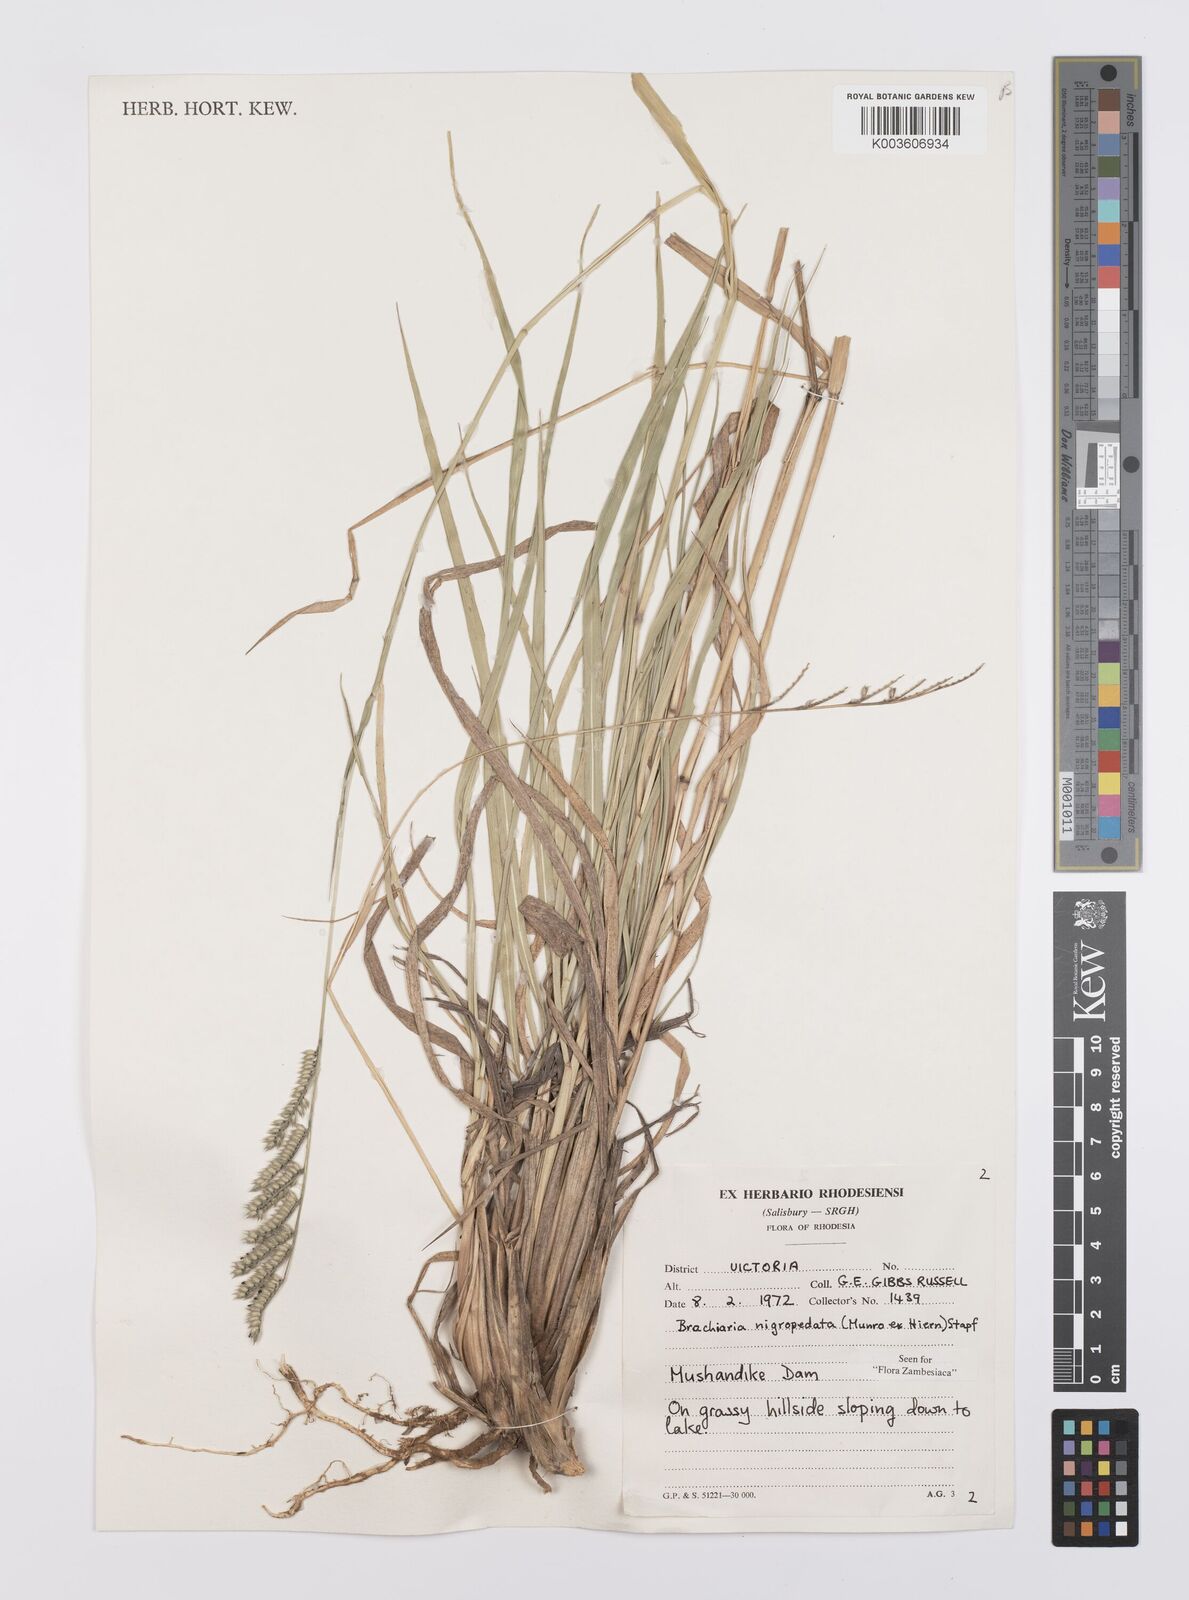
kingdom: Plantae
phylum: Tracheophyta
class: Liliopsida
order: Poales
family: Poaceae
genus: Urochloa
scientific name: Urochloa nigropedata
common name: Spotted signal grass
